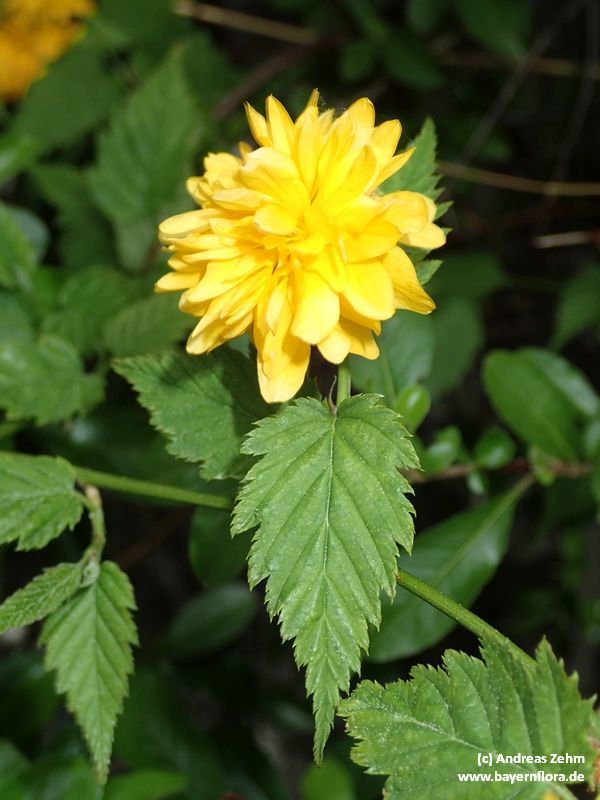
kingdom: Plantae
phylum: Tracheophyta
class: Magnoliopsida
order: Rosales
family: Rosaceae
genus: Kerria
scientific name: Kerria japonica
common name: Japanese kerria
